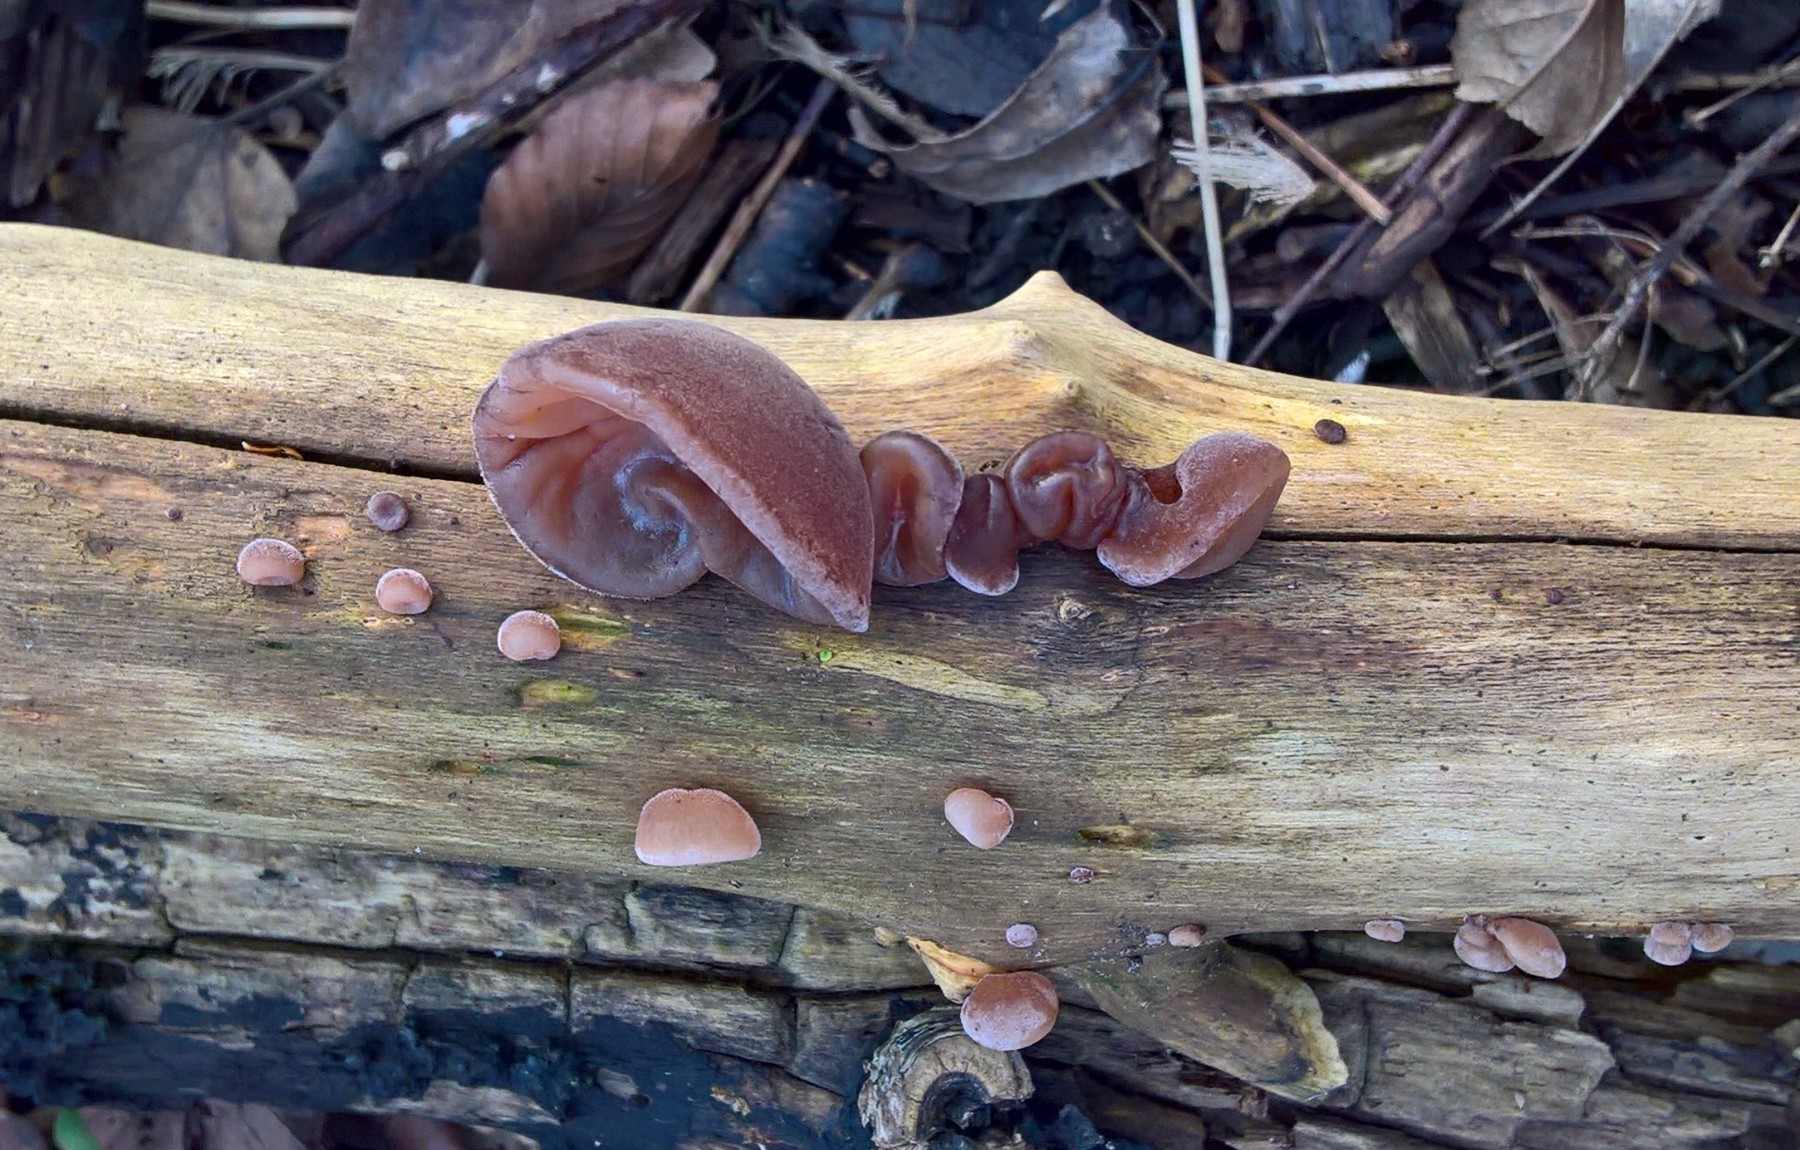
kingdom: Fungi
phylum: Basidiomycota
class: Agaricomycetes
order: Auriculariales
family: Auriculariaceae
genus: Auricularia
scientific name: Auricularia auricula-judae
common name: almindelig judasøre
